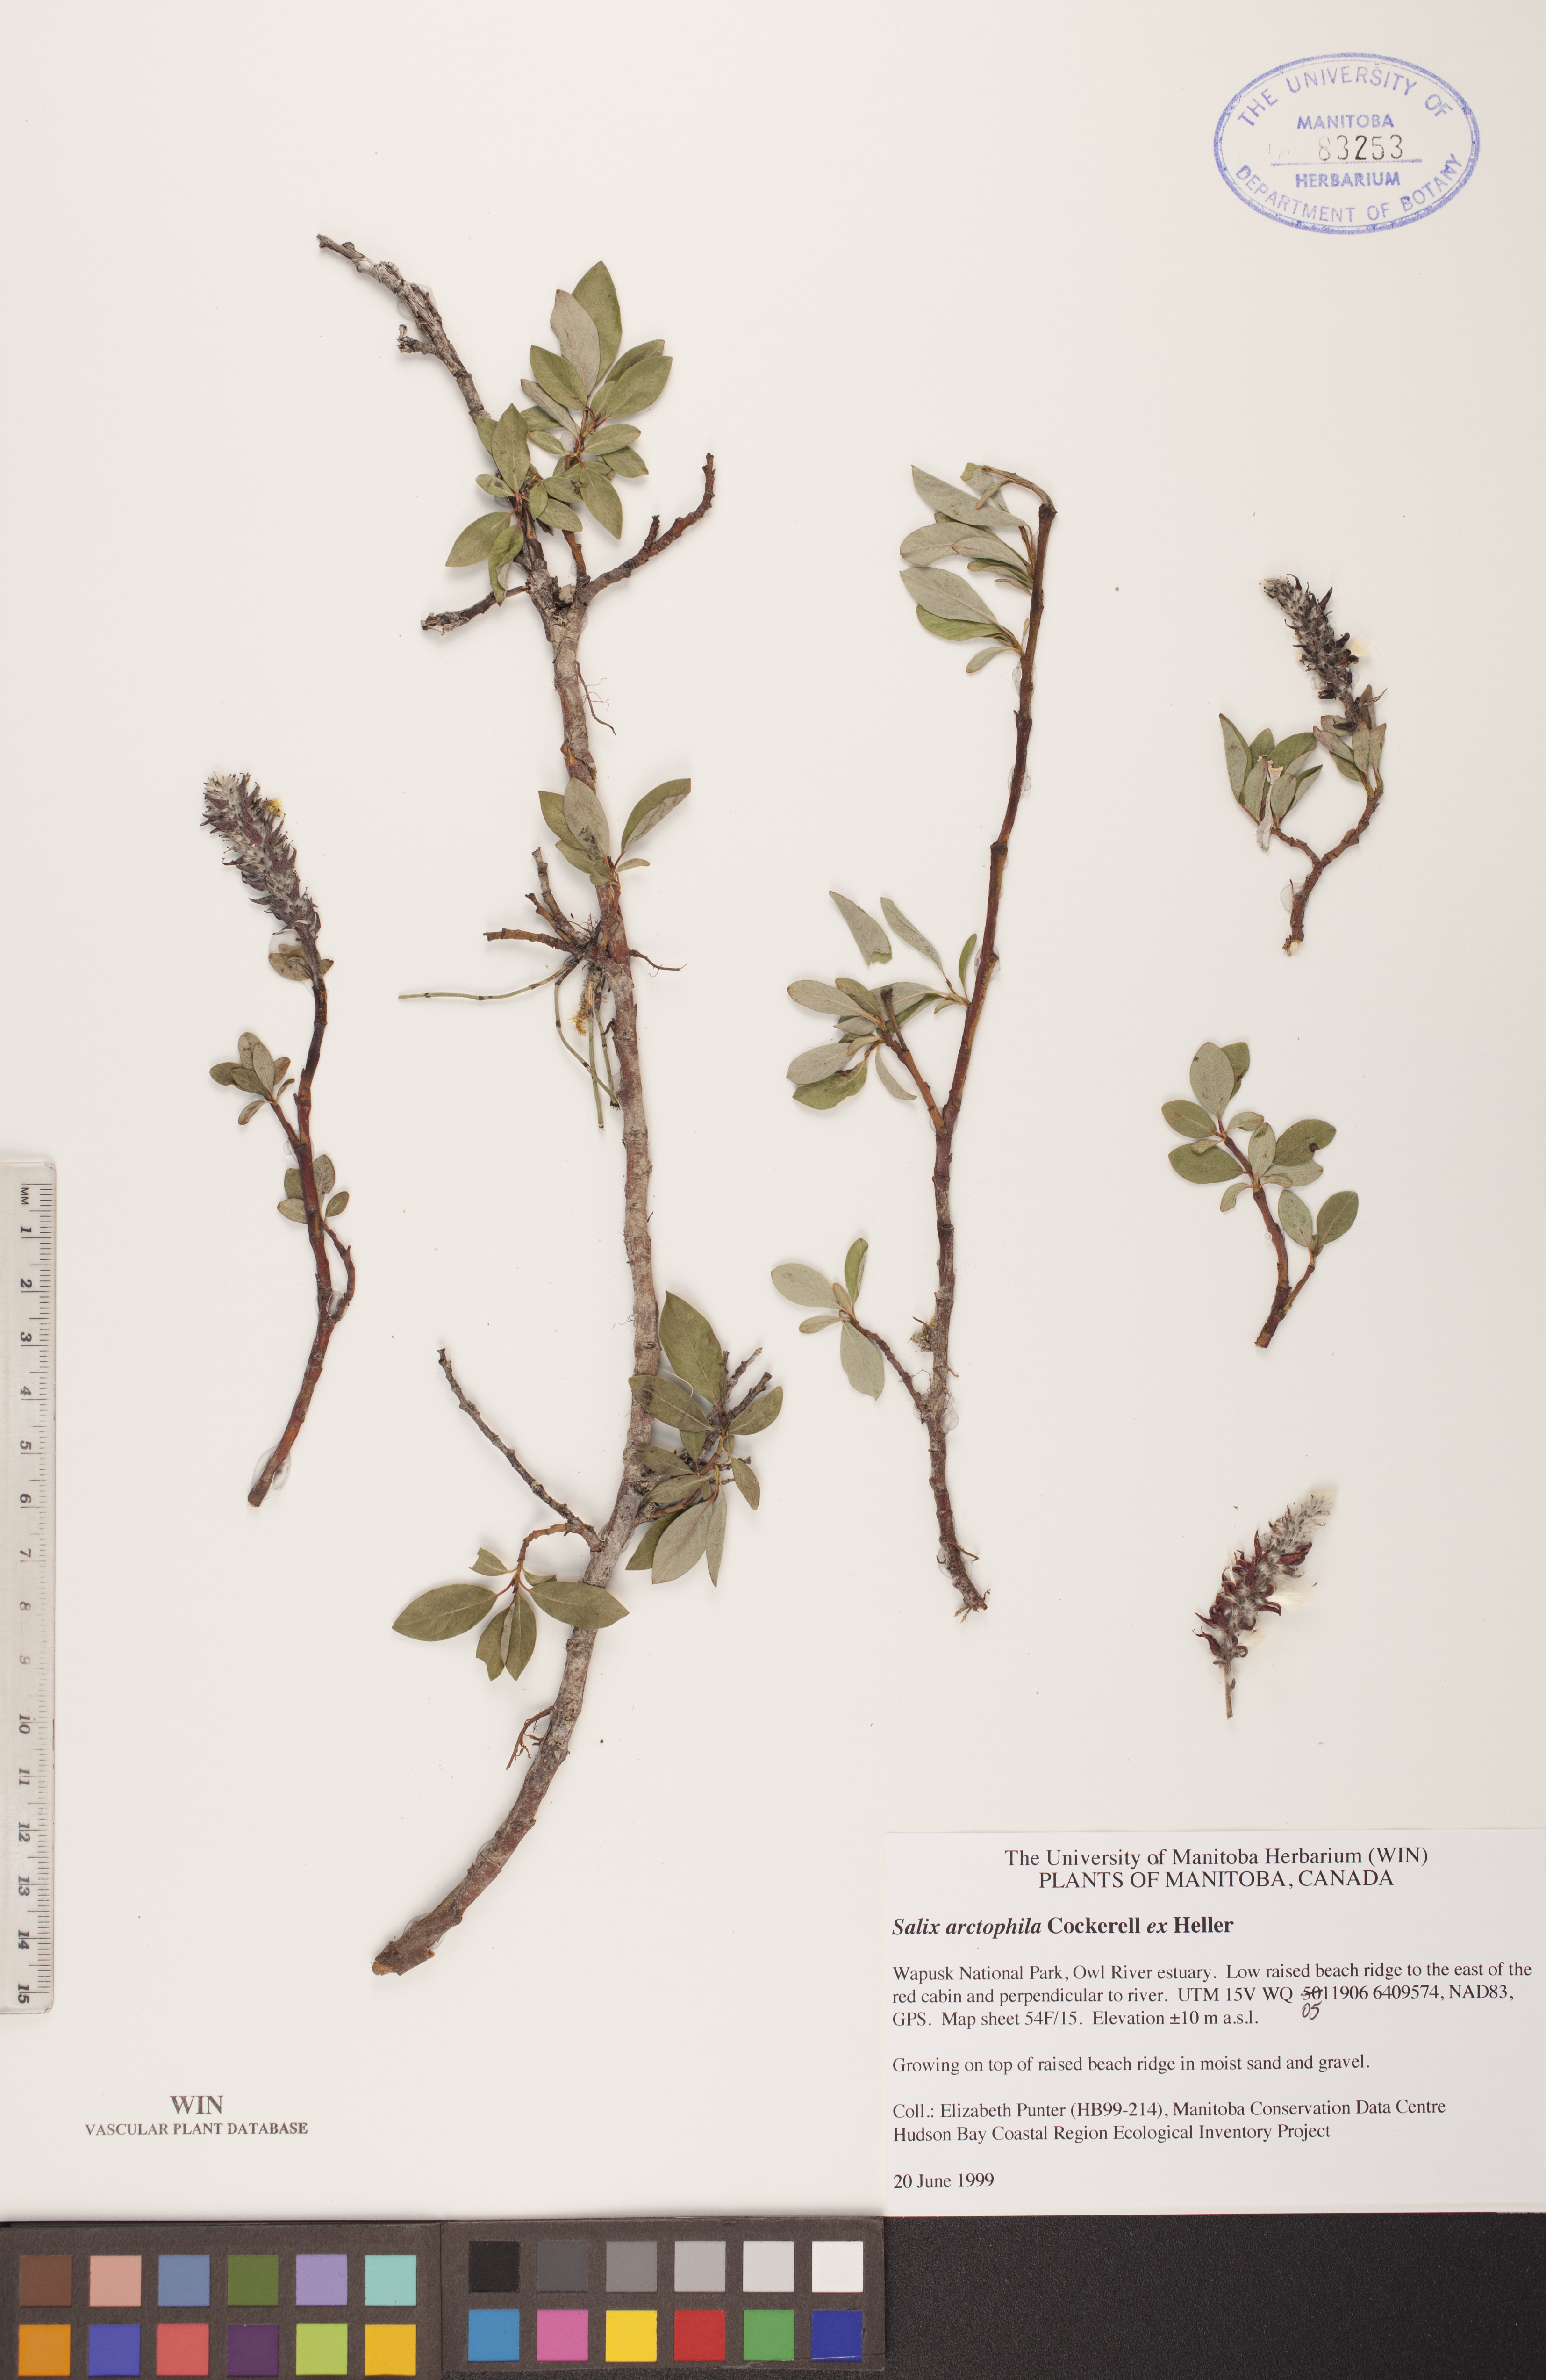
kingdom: Plantae
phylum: Tracheophyta
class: Magnoliopsida
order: Malpighiales
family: Salicaceae
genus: Salix
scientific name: Salix arctophila
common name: Greenland willow
